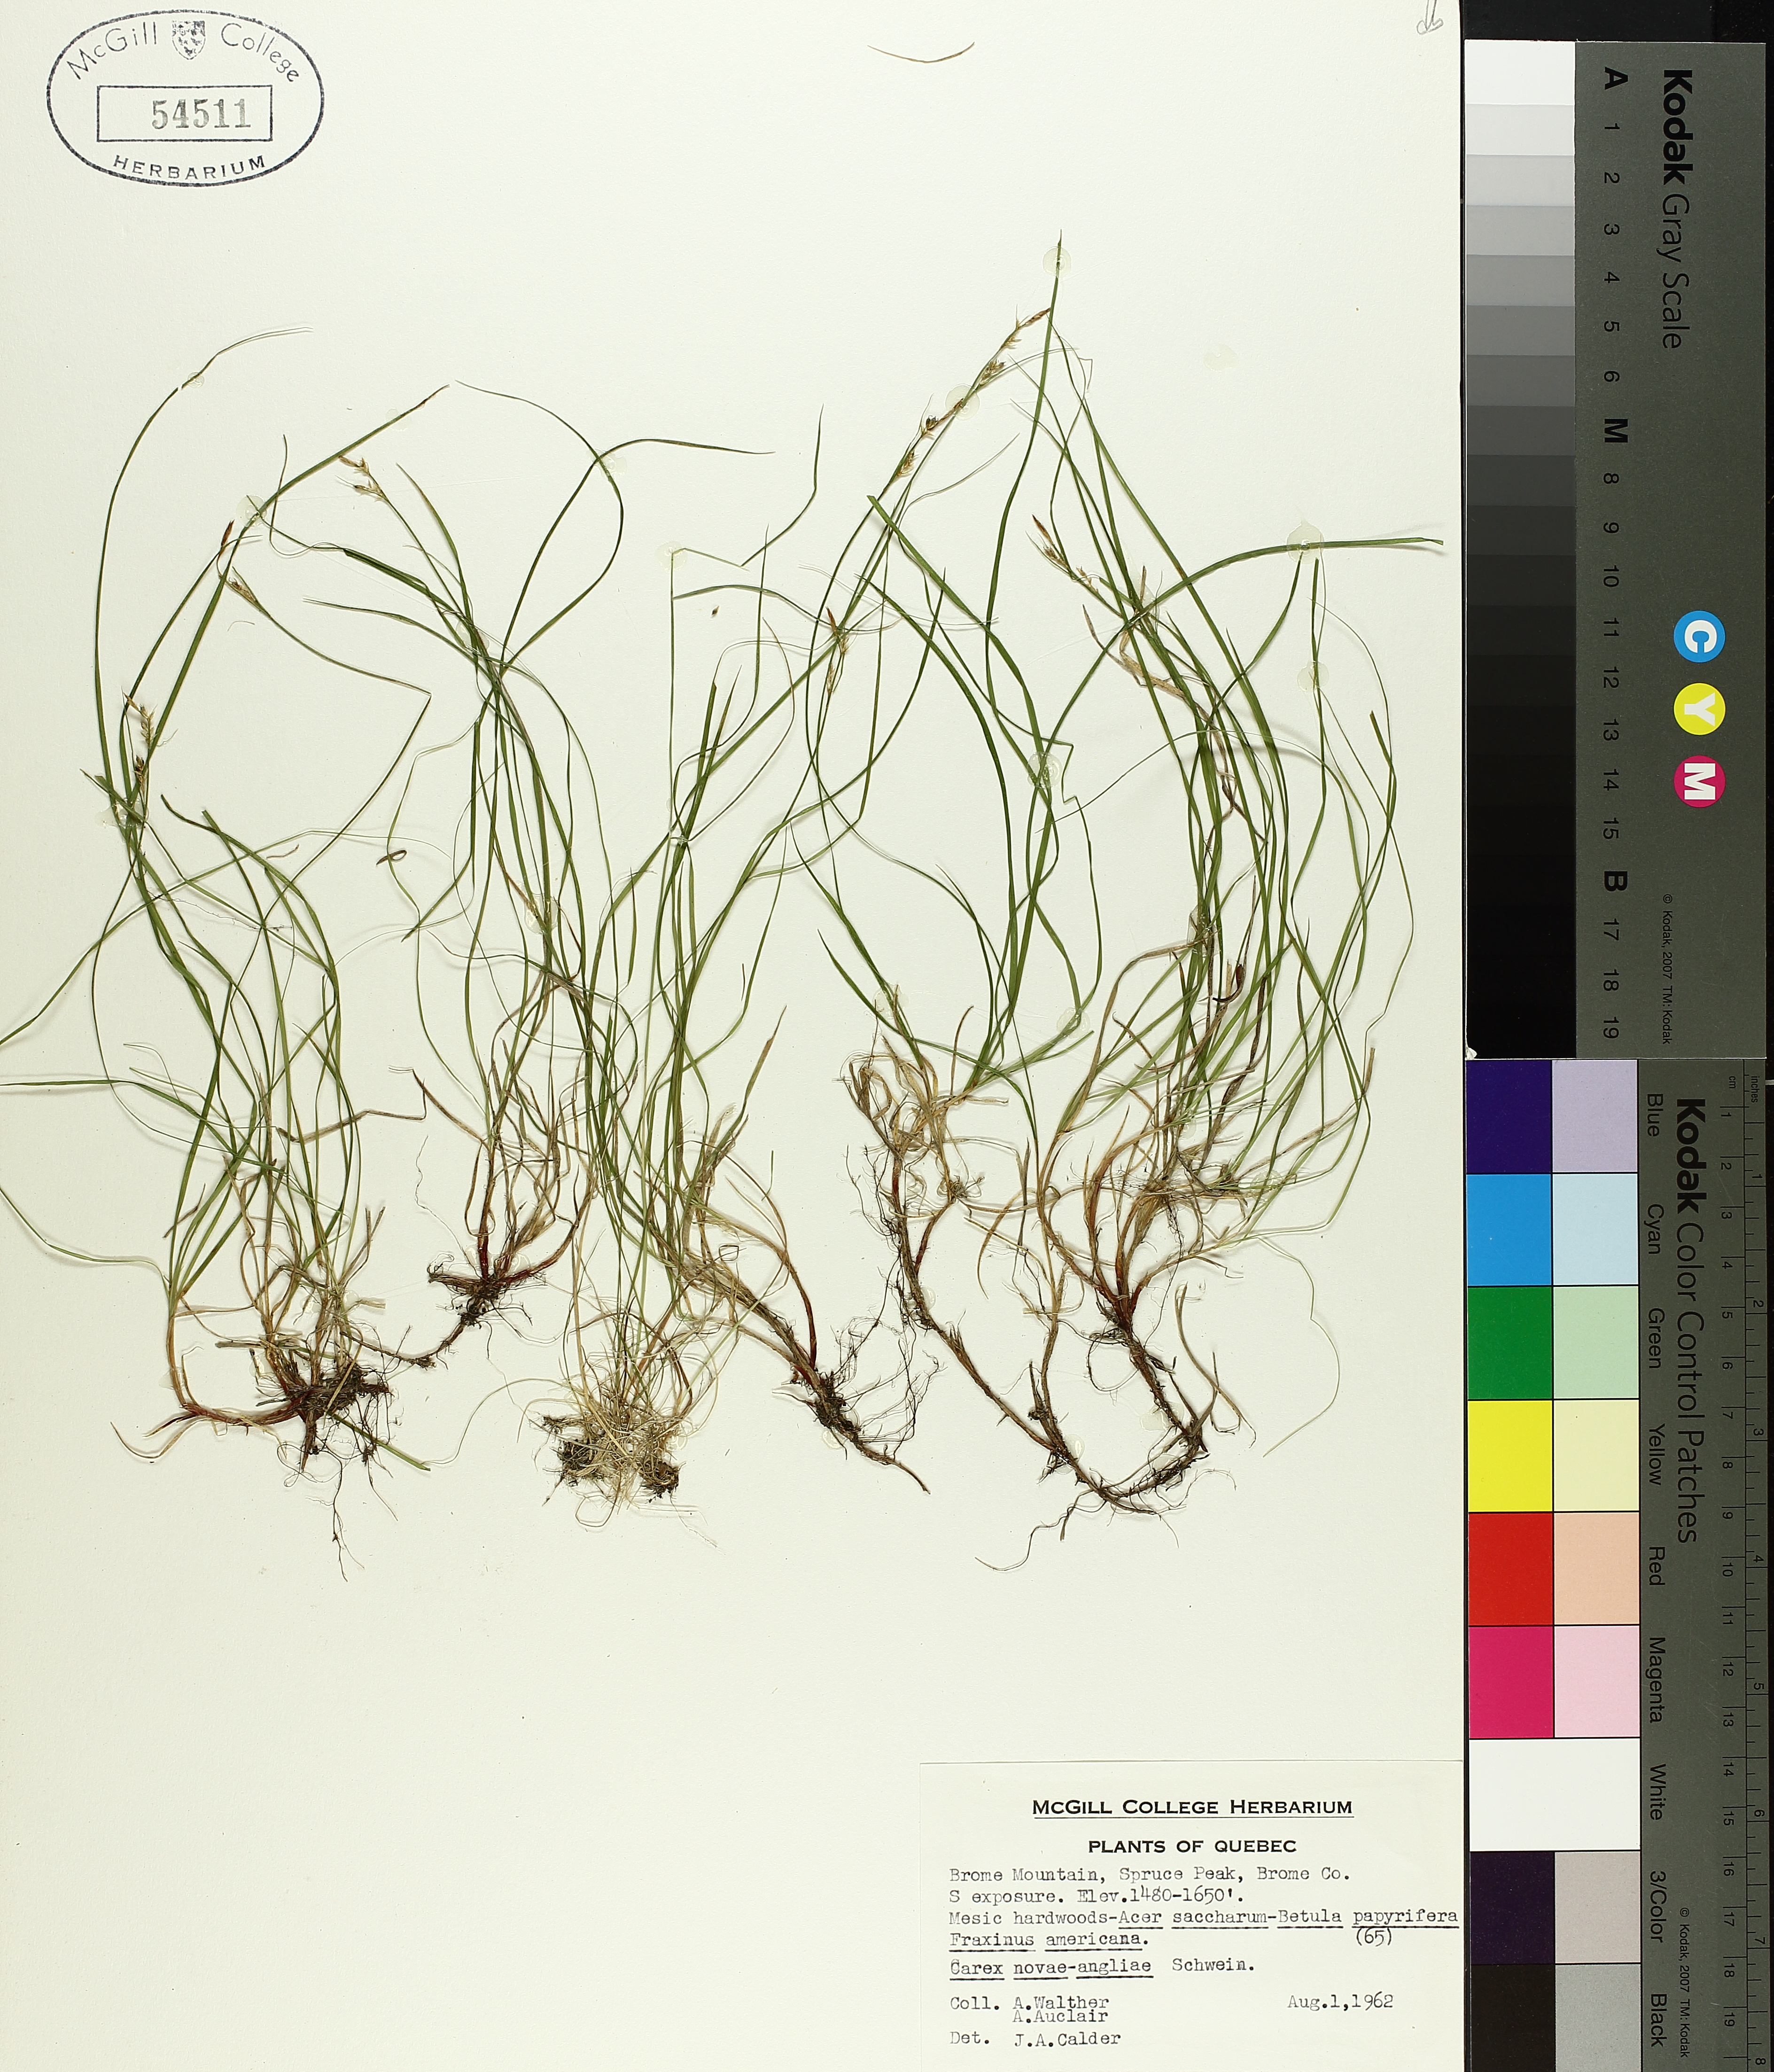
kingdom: Plantae
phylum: Tracheophyta
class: Liliopsida
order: Poales
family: Cyperaceae
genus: Carex
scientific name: Carex novae-angliae
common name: New england sedge
